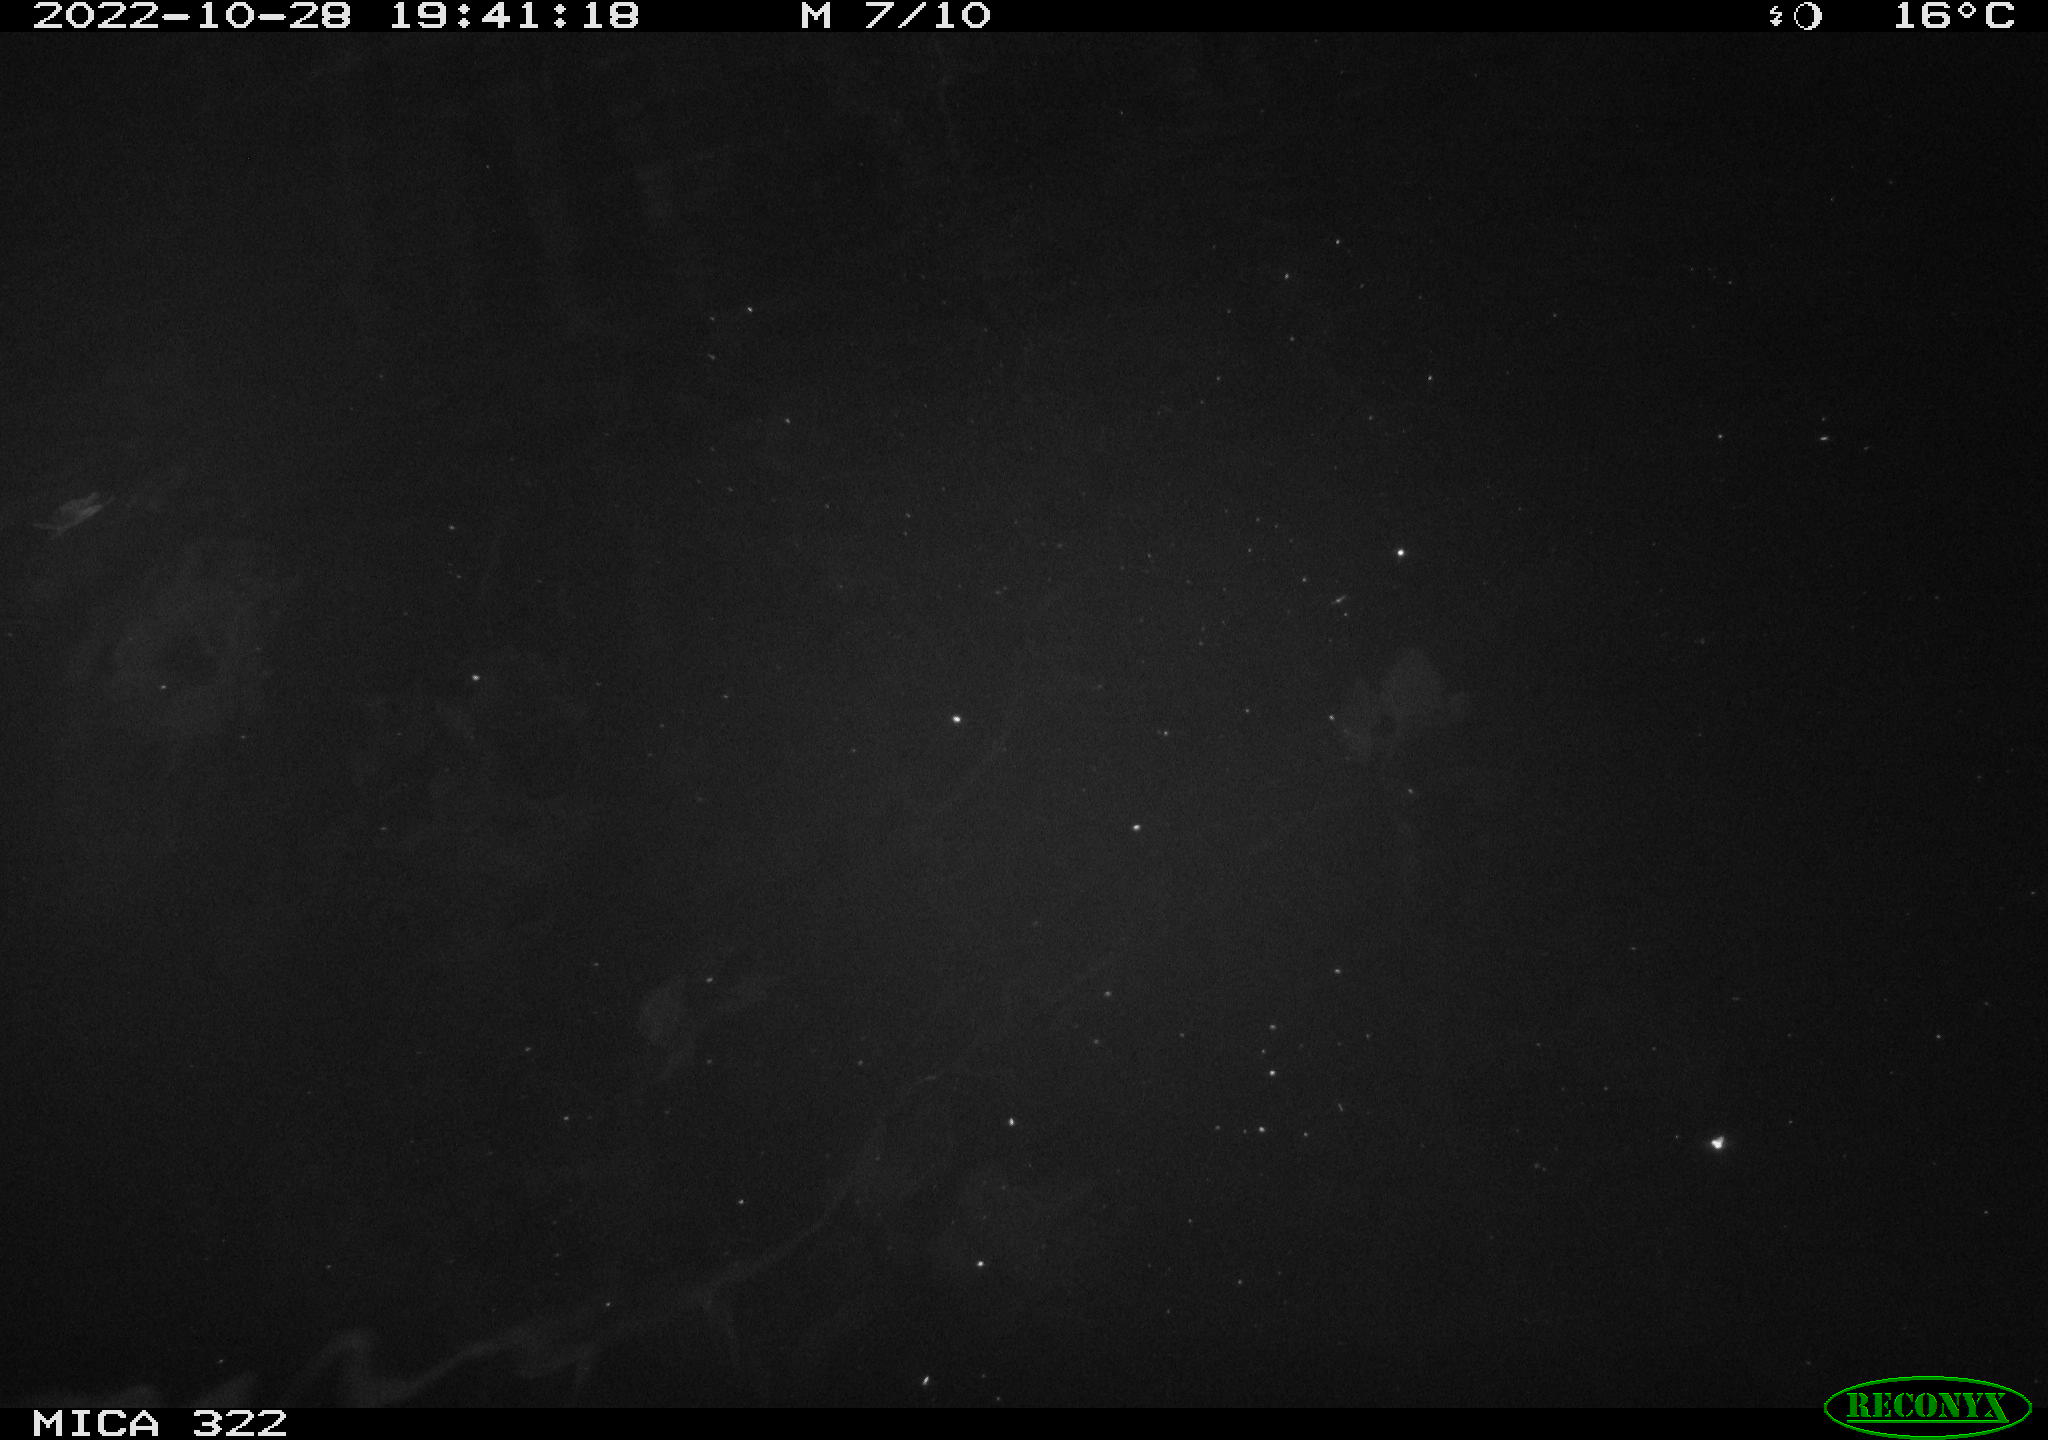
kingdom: Animalia
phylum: Chordata
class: Mammalia
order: Rodentia
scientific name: Rodentia
